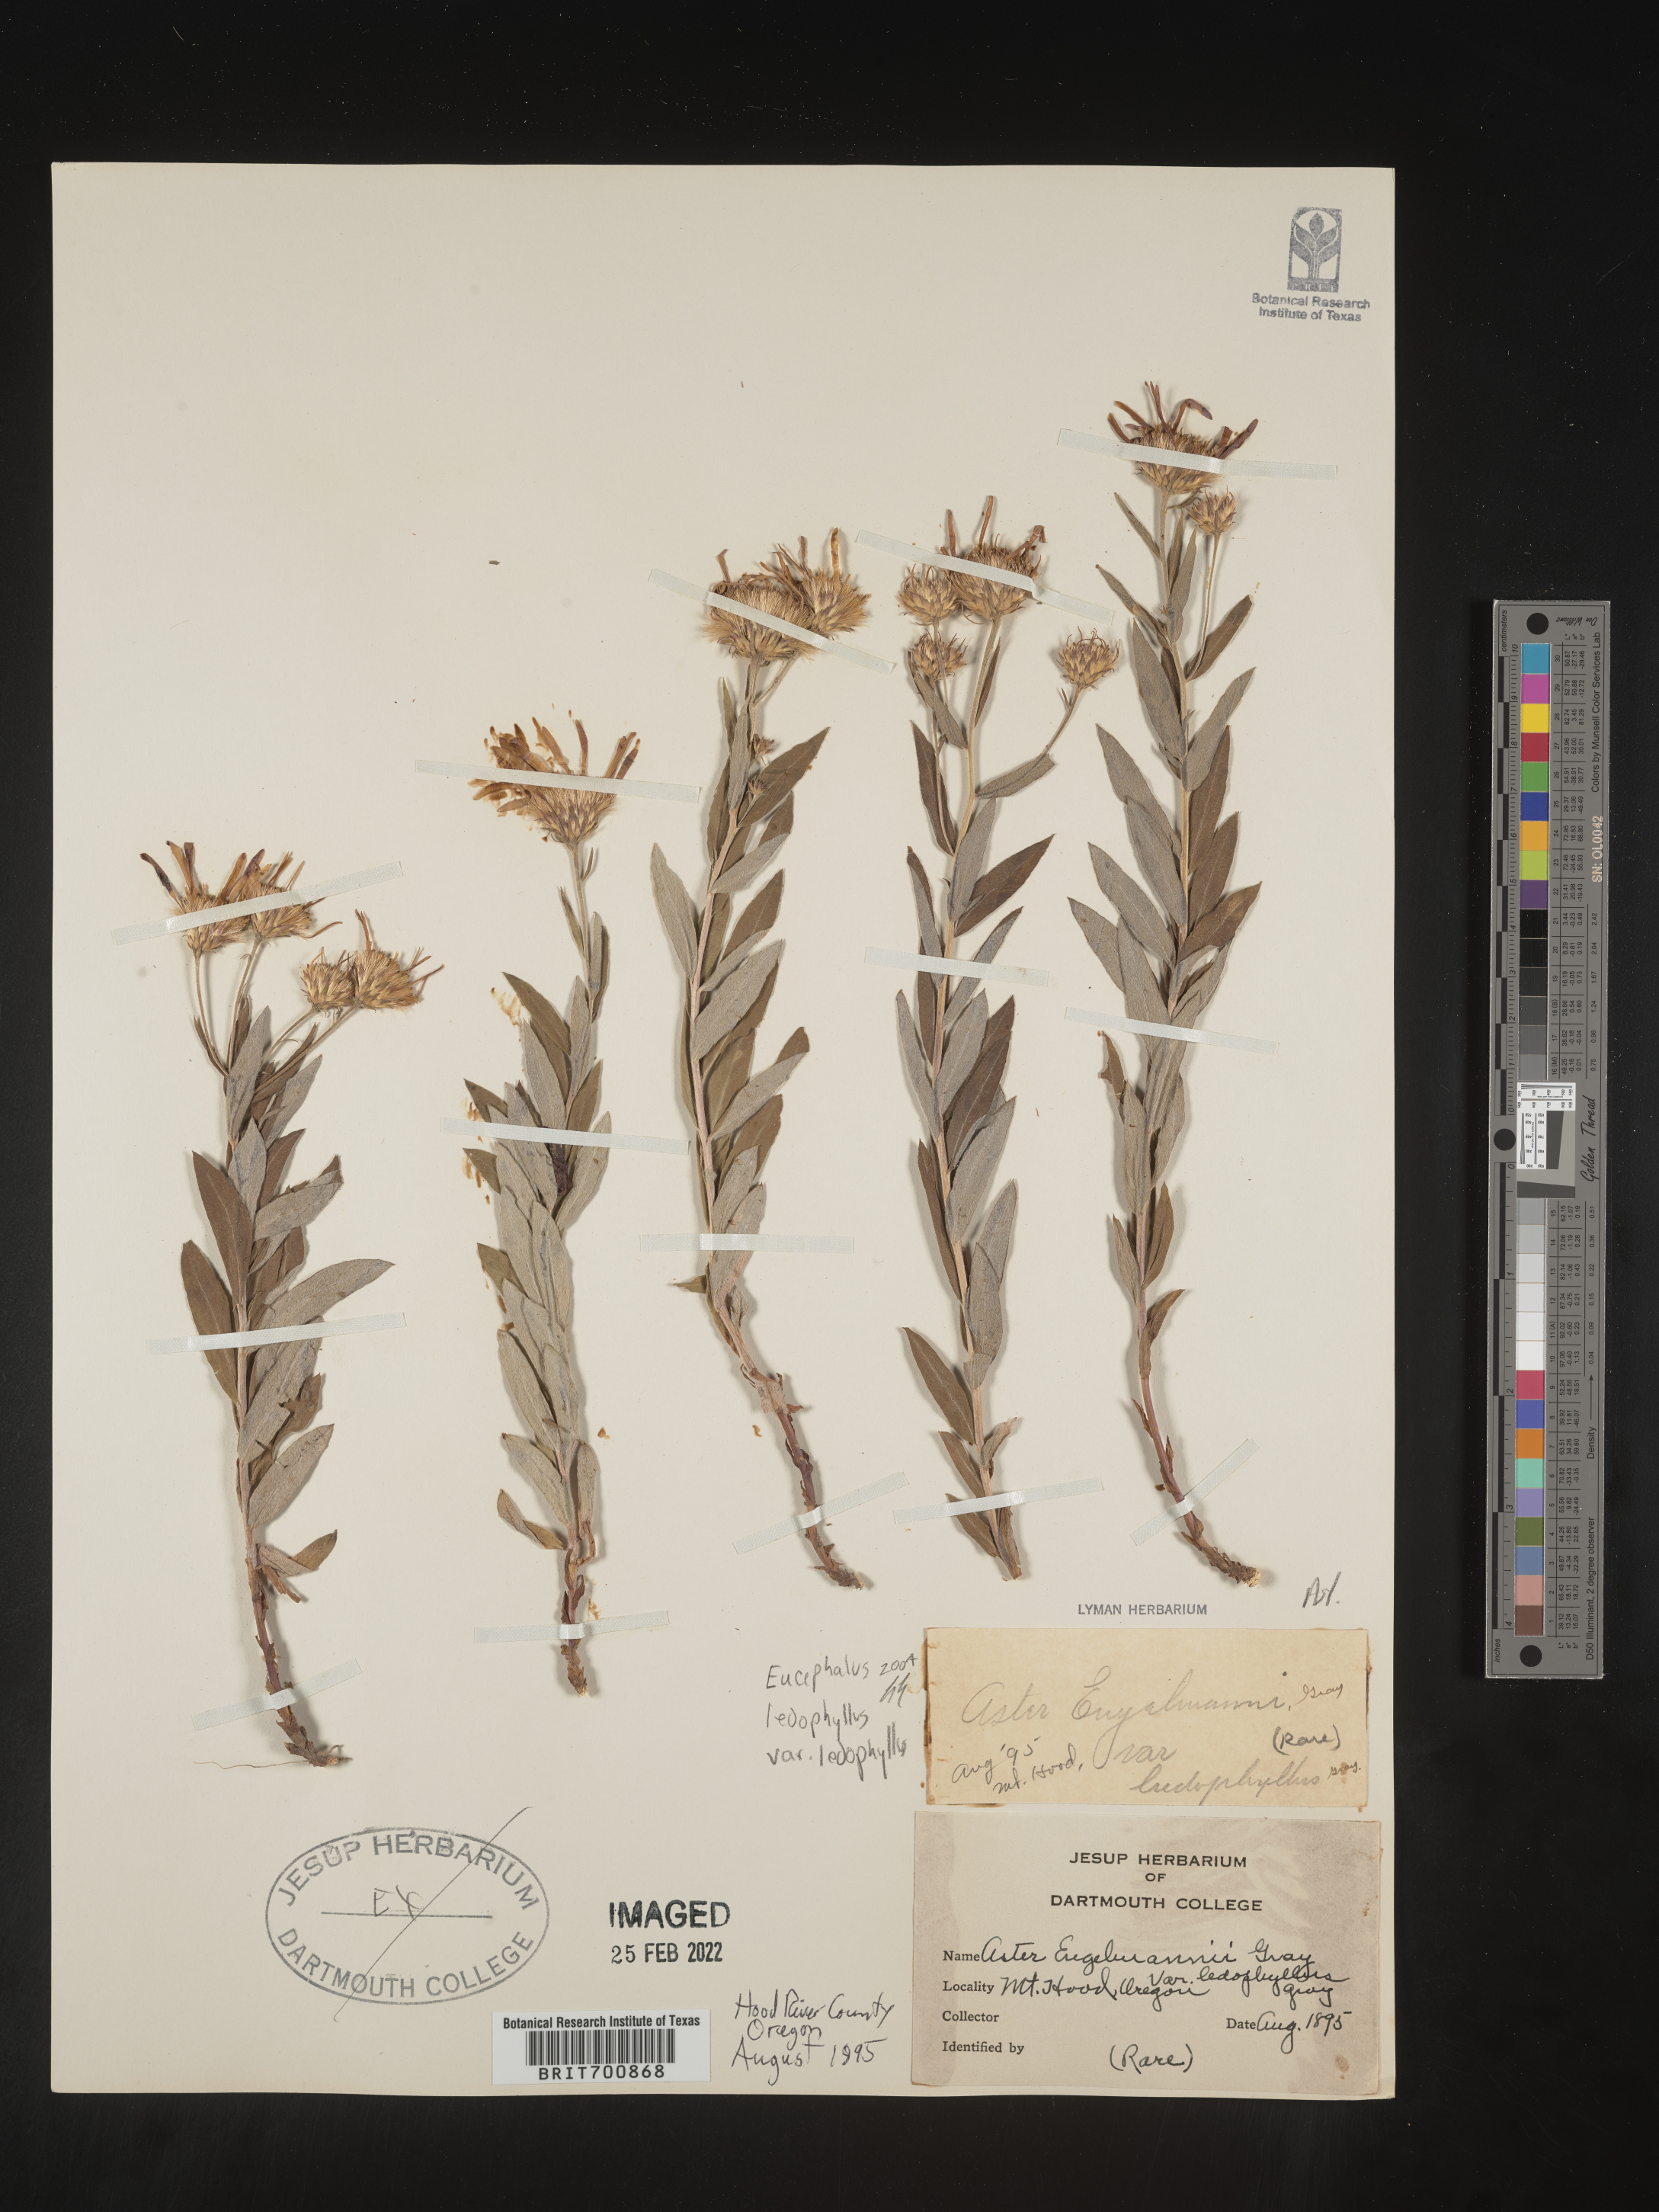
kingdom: Plantae
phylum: Tracheophyta
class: Magnoliopsida
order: Asterales
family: Asteraceae
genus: Eucephalus
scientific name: Eucephalus ledophyllus
